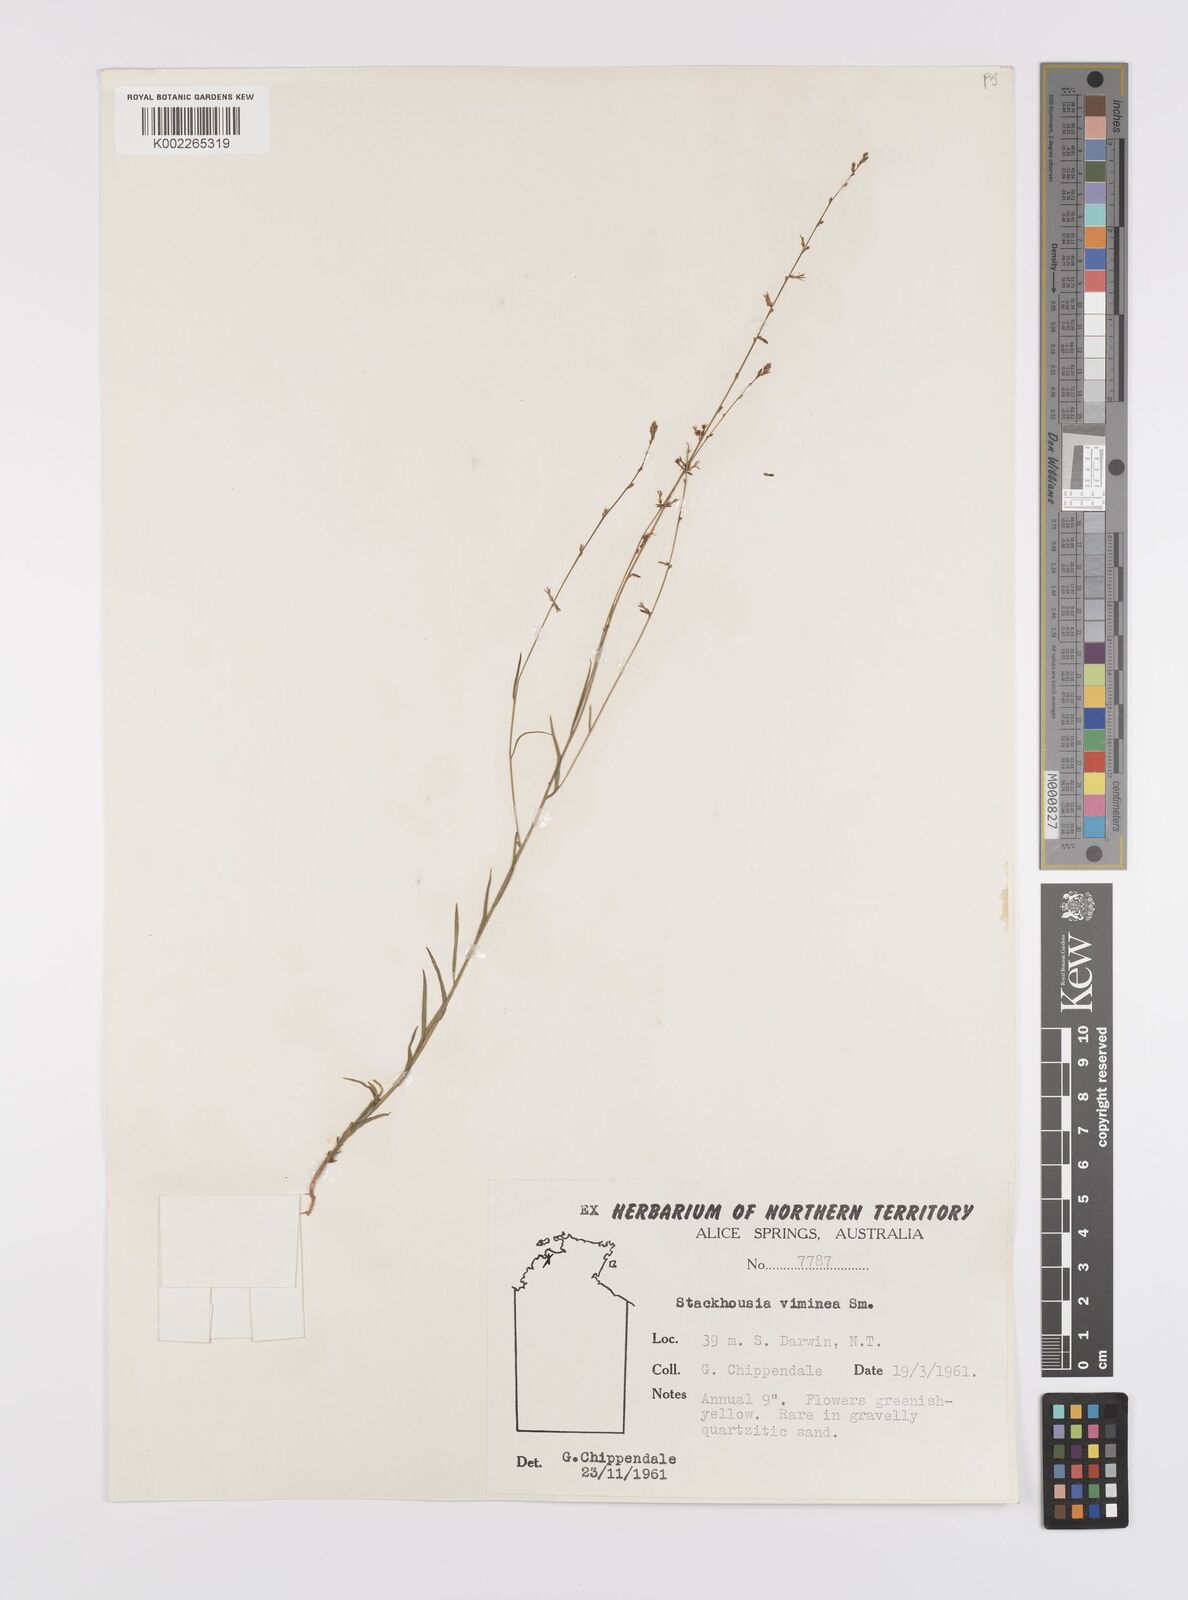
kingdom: Plantae
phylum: Tracheophyta
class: Magnoliopsida
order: Celastrales
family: Celastraceae
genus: Stackhousia
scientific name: Stackhousia viminea
